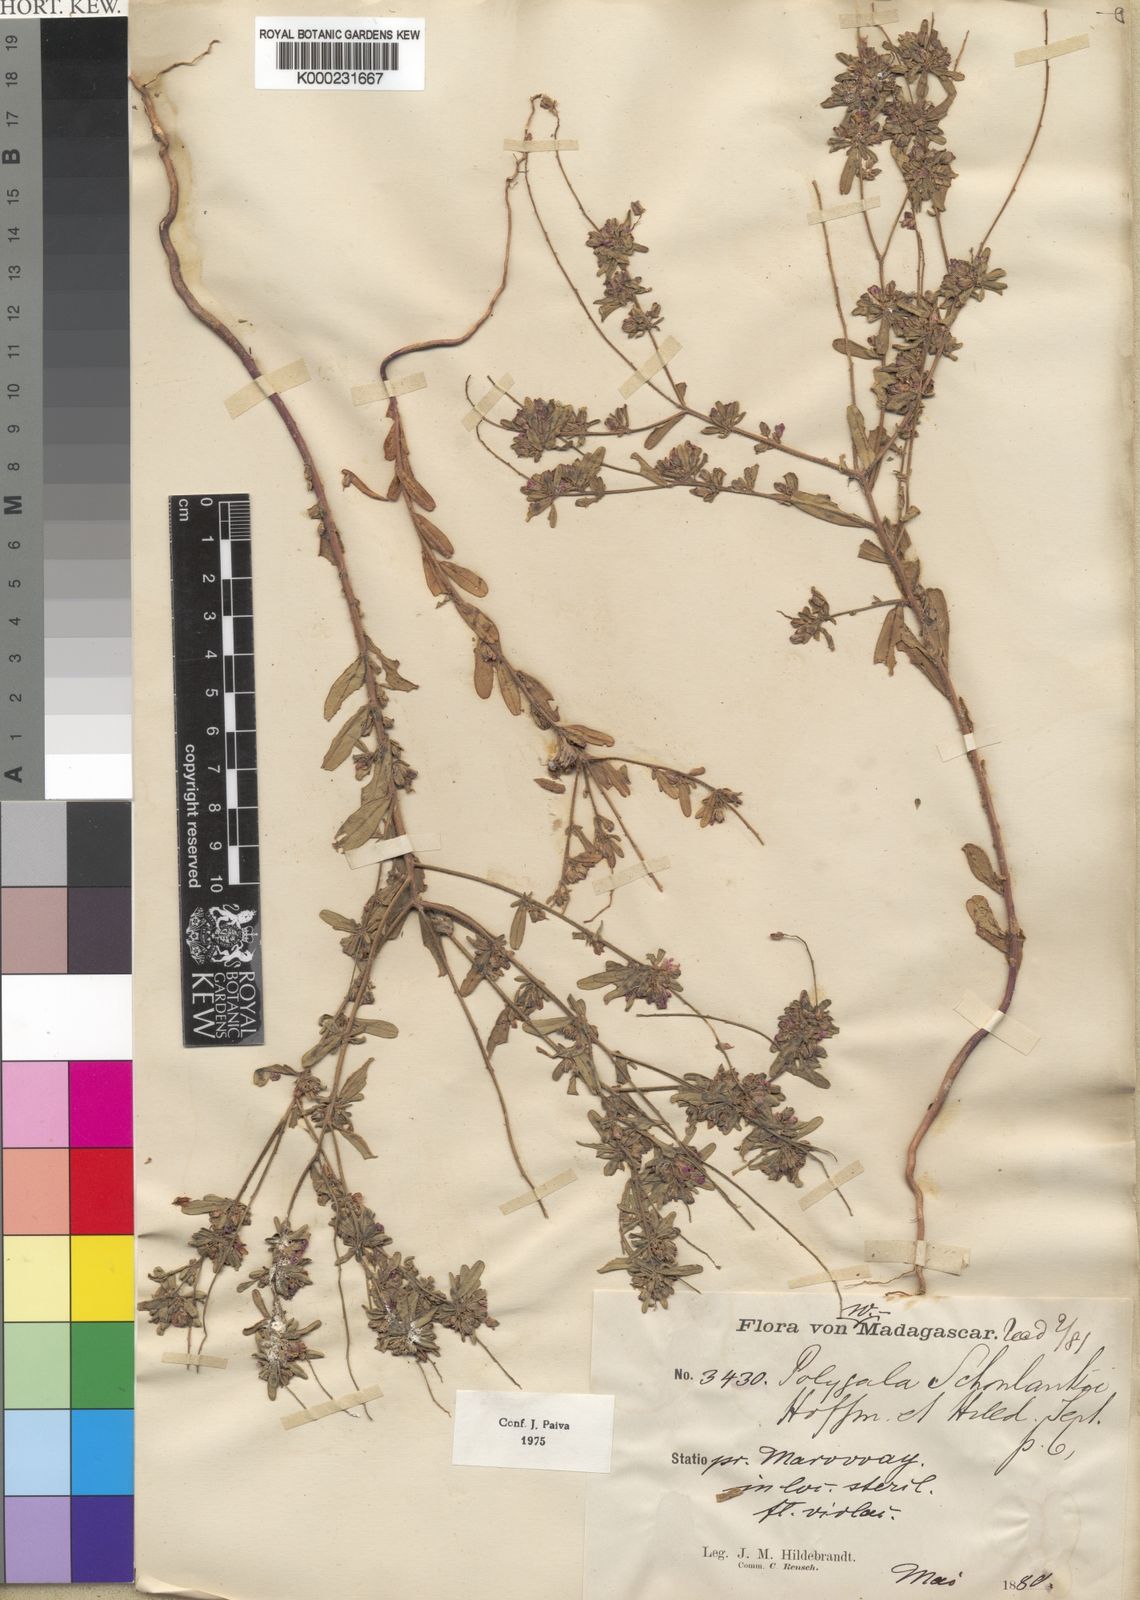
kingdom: Plantae
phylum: Tracheophyta
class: Magnoliopsida
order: Fabales
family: Polygalaceae
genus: Polygala
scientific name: Polygala
